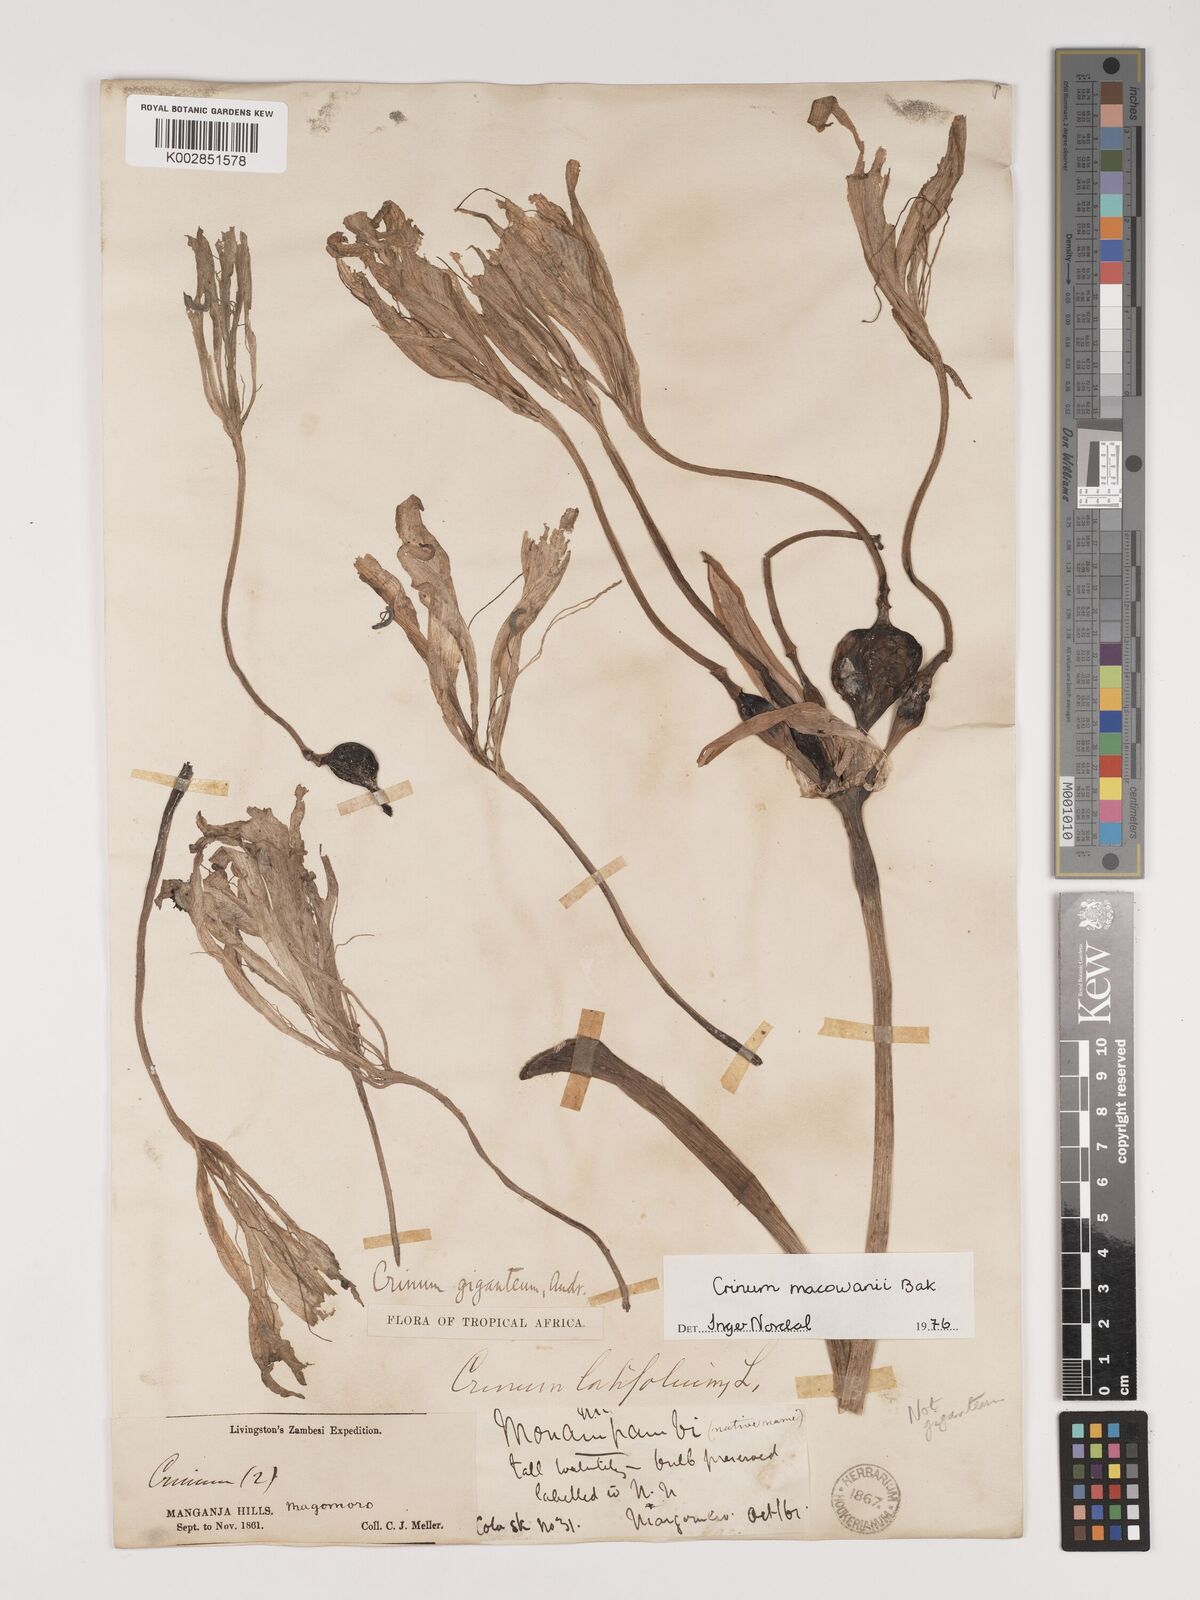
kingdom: Plantae
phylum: Tracheophyta
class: Liliopsida
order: Asparagales
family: Amaryllidaceae
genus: Crinum
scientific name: Crinum macowanii
